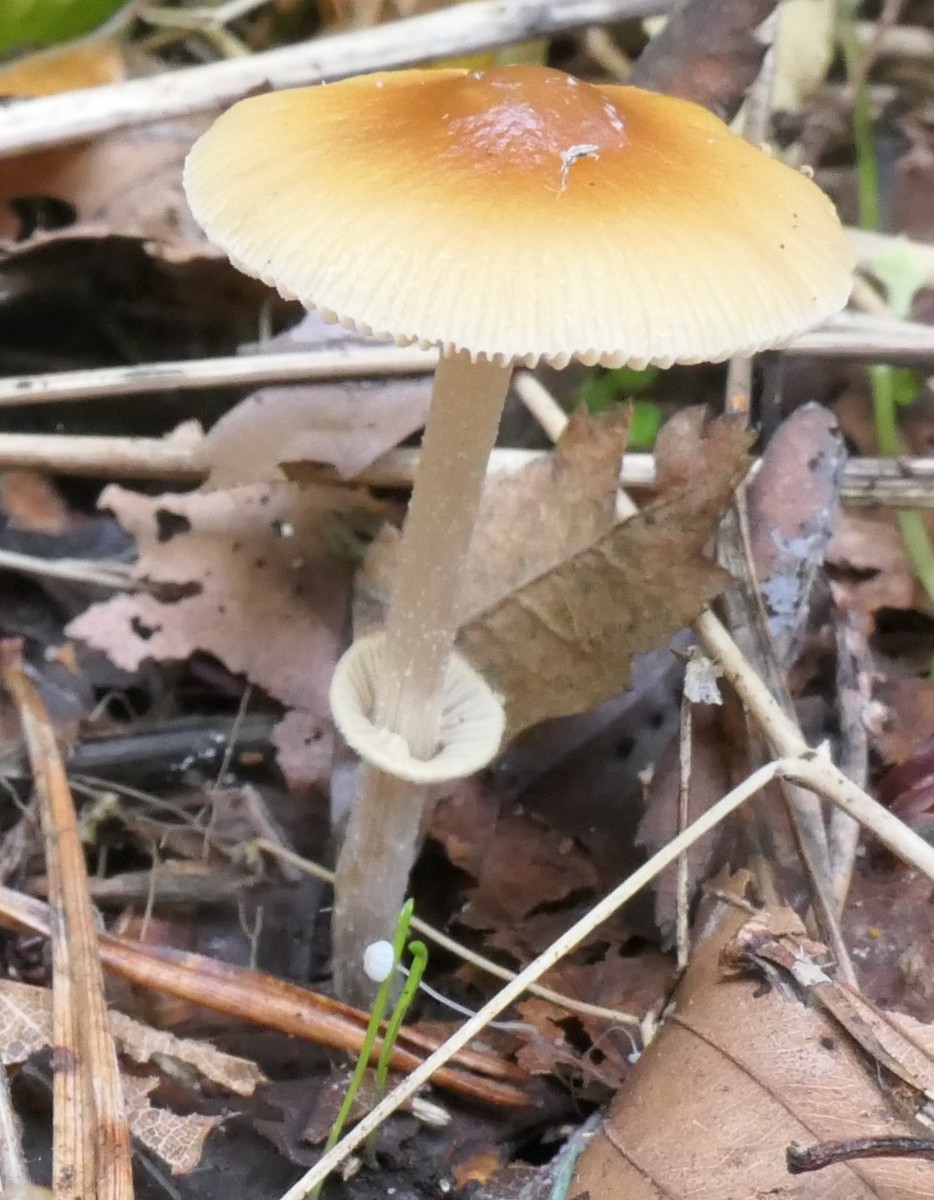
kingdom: Fungi
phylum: Basidiomycota
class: Agaricomycetes
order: Agaricales
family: Bolbitiaceae
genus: Conocybe
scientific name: Conocybe arrhenii
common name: ring-dansehat
